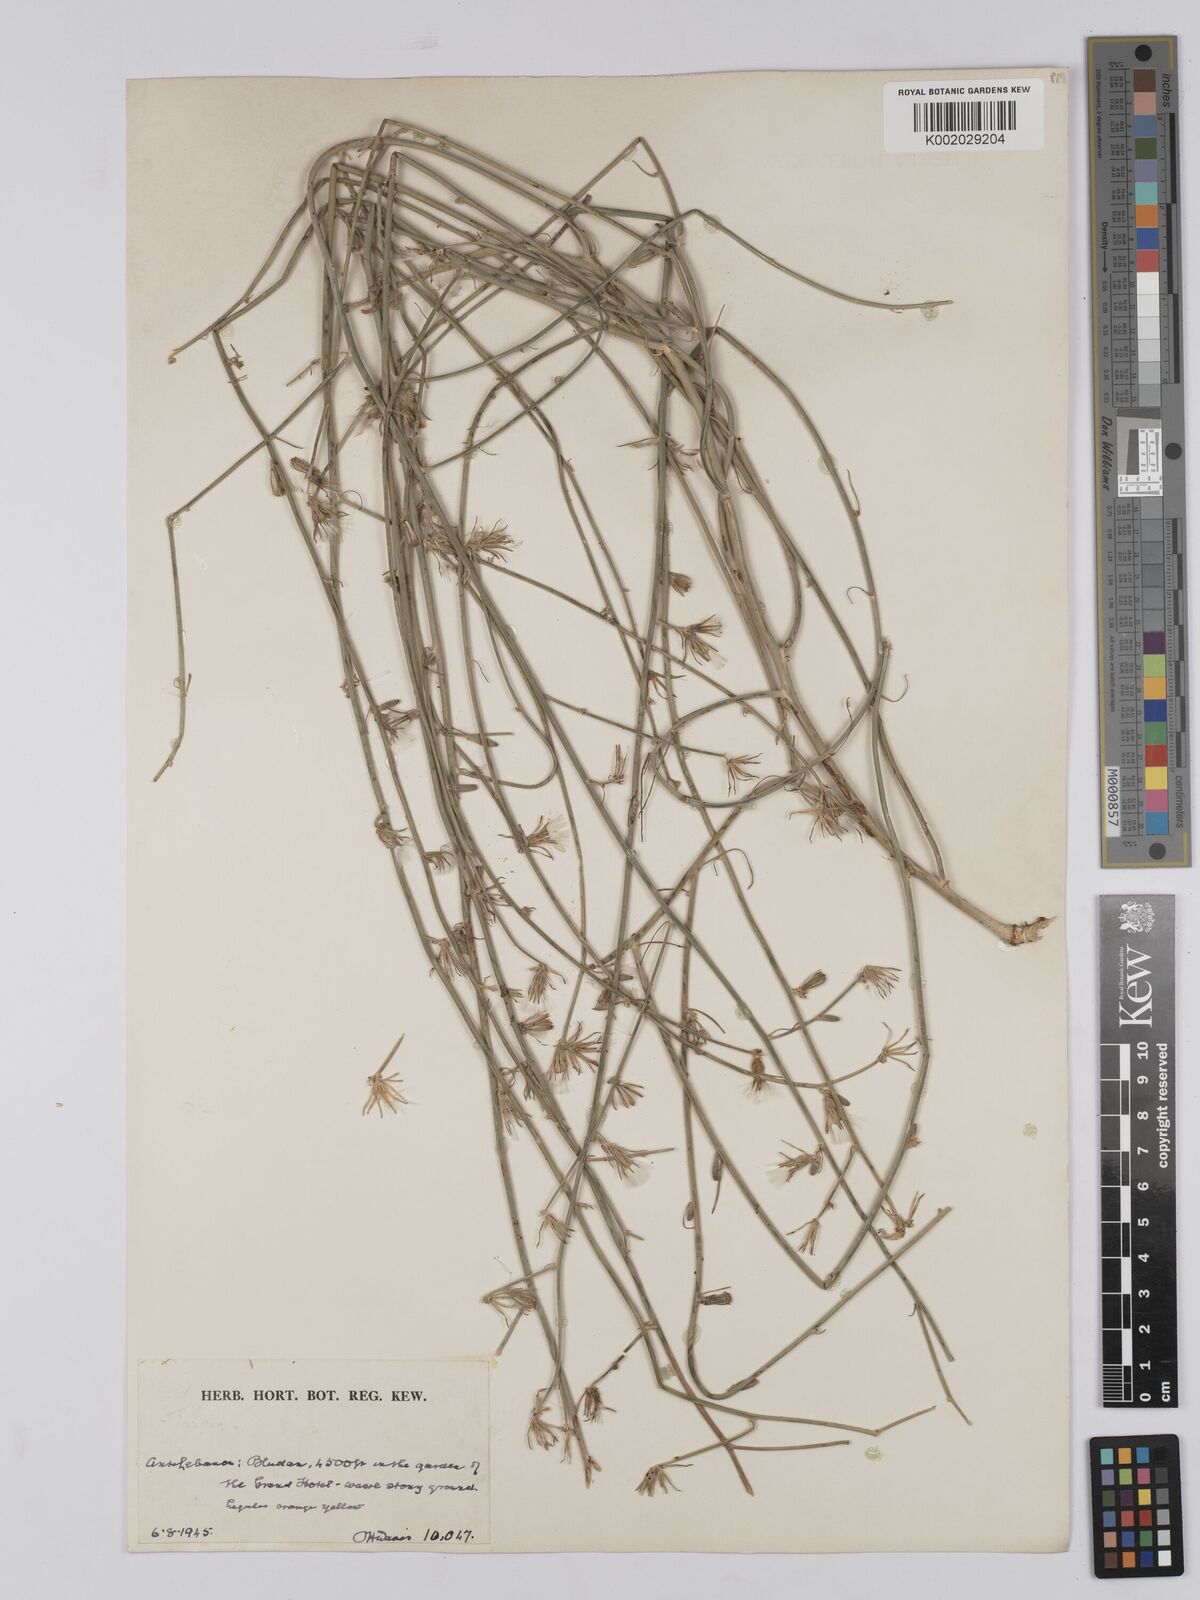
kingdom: Plantae
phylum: Tracheophyta
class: Magnoliopsida
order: Asterales
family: Asteraceae
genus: Chondrilla
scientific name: Chondrilla juncea
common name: Skeleton weed
